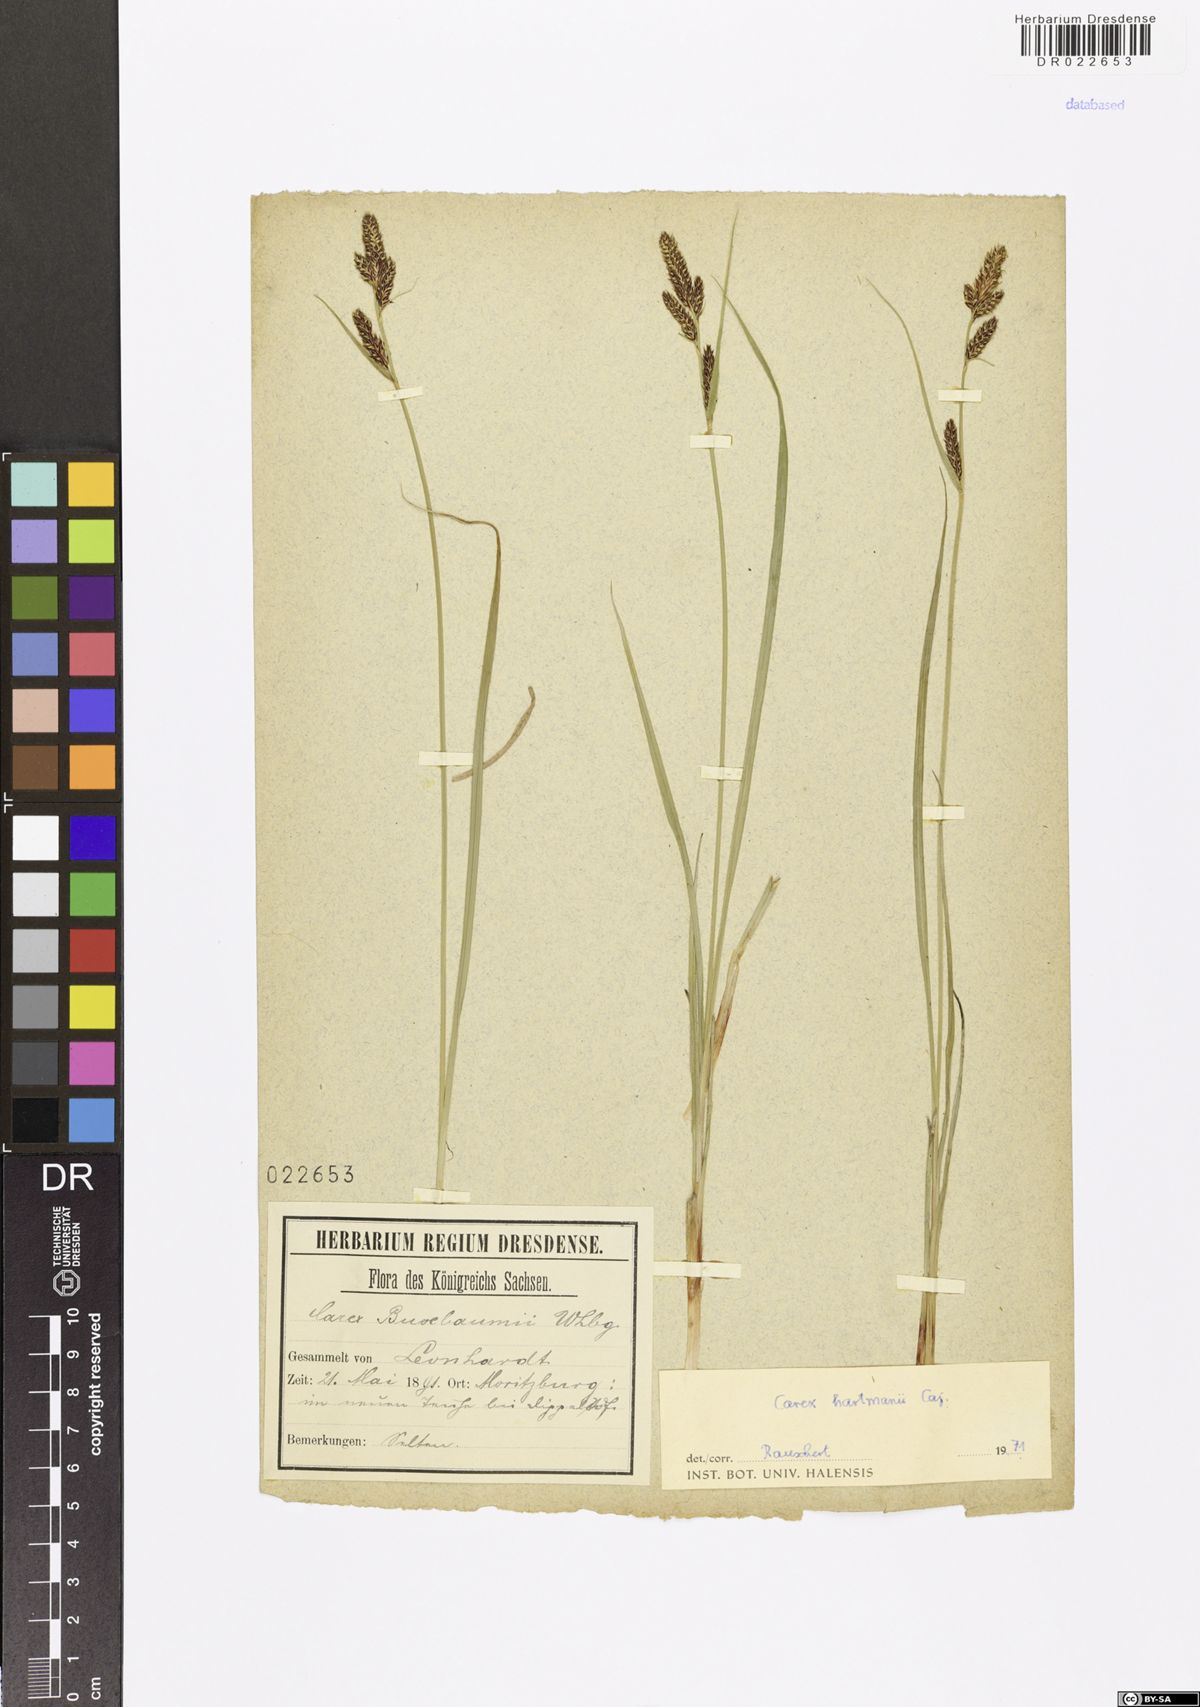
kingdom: Plantae
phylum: Tracheophyta
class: Liliopsida
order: Poales
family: Cyperaceae
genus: Carex
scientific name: Carex hartmaniorum
